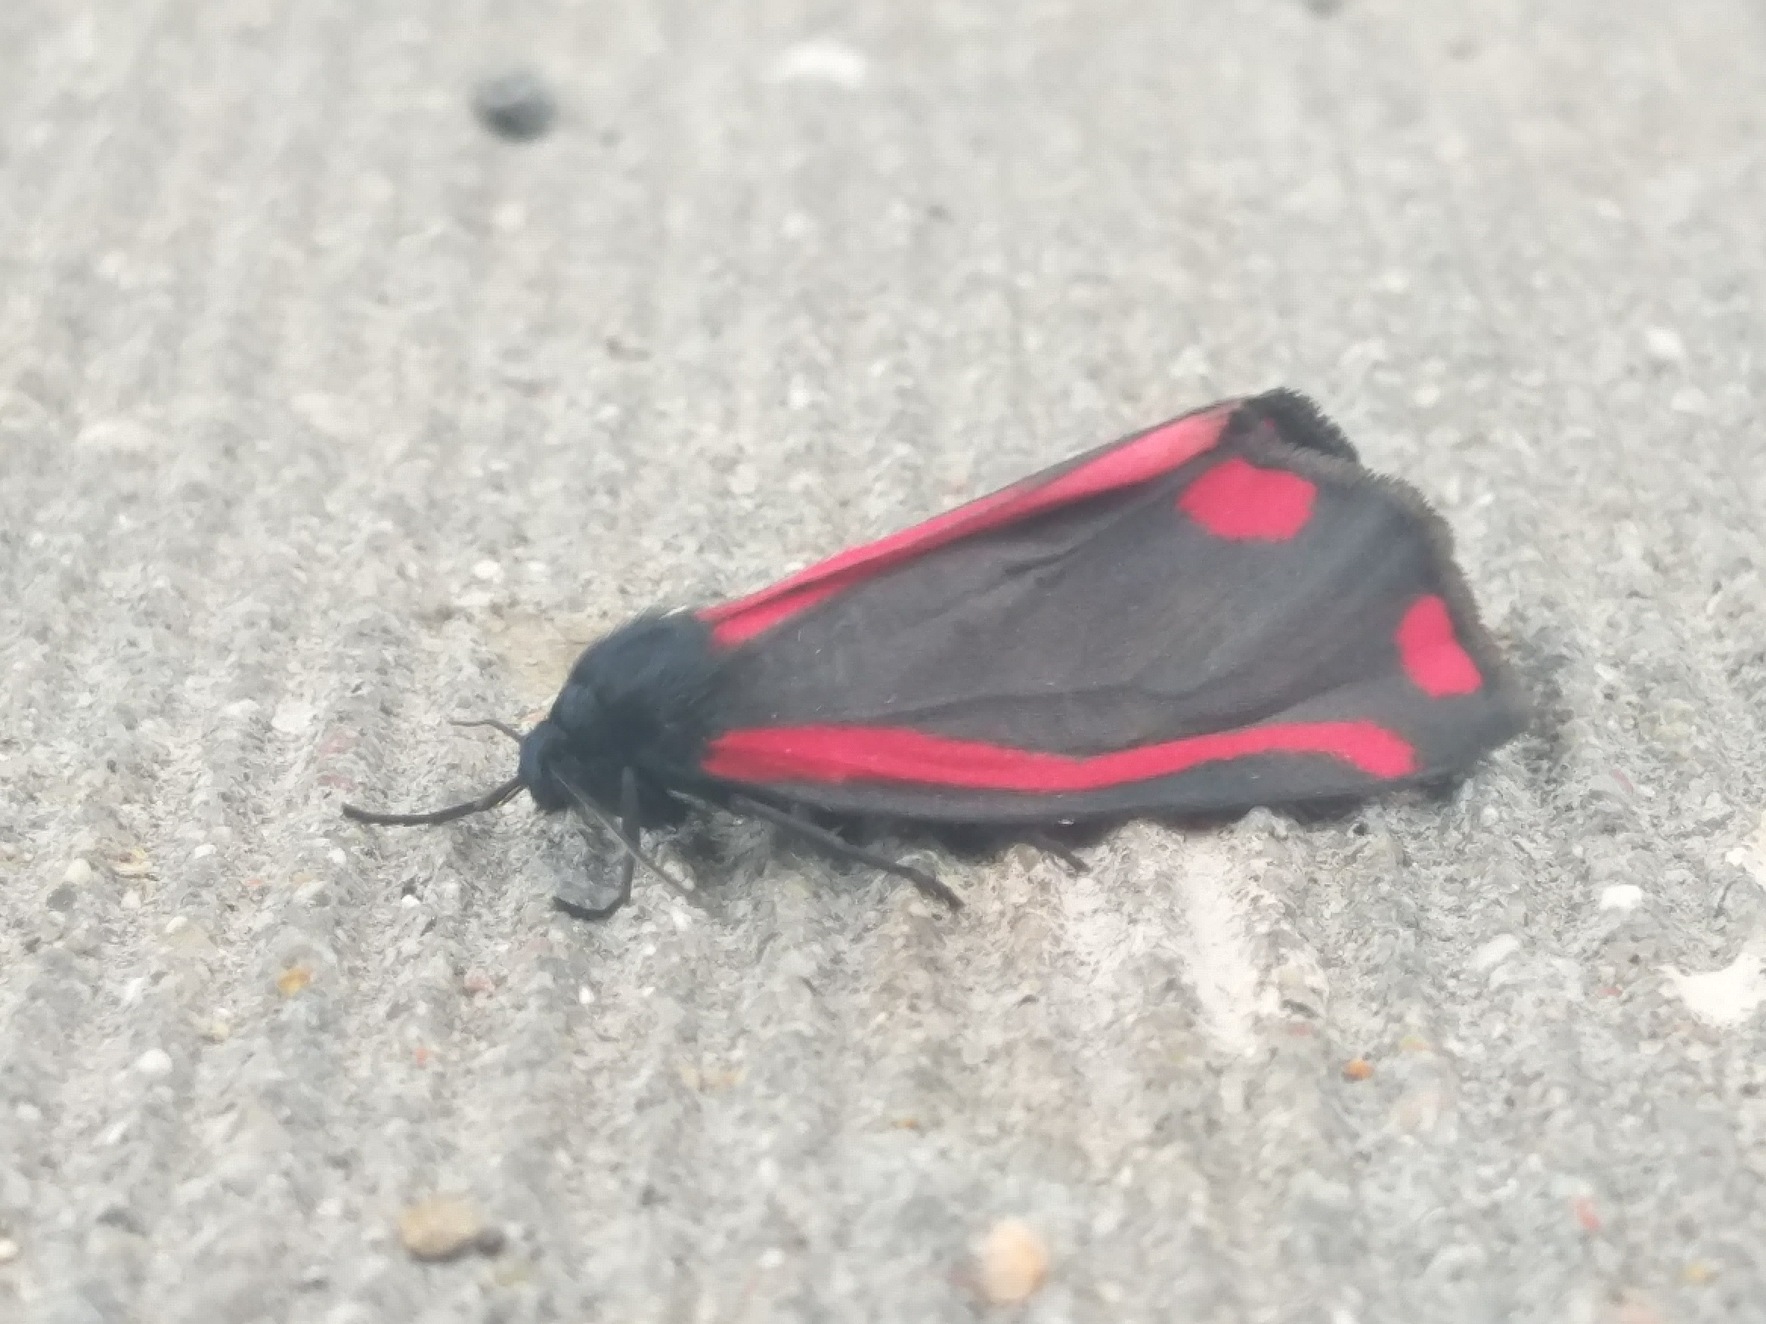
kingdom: Animalia
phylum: Arthropoda
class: Insecta
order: Lepidoptera
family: Erebidae
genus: Tyria
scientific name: Tyria jacobaeae
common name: Blodplet
